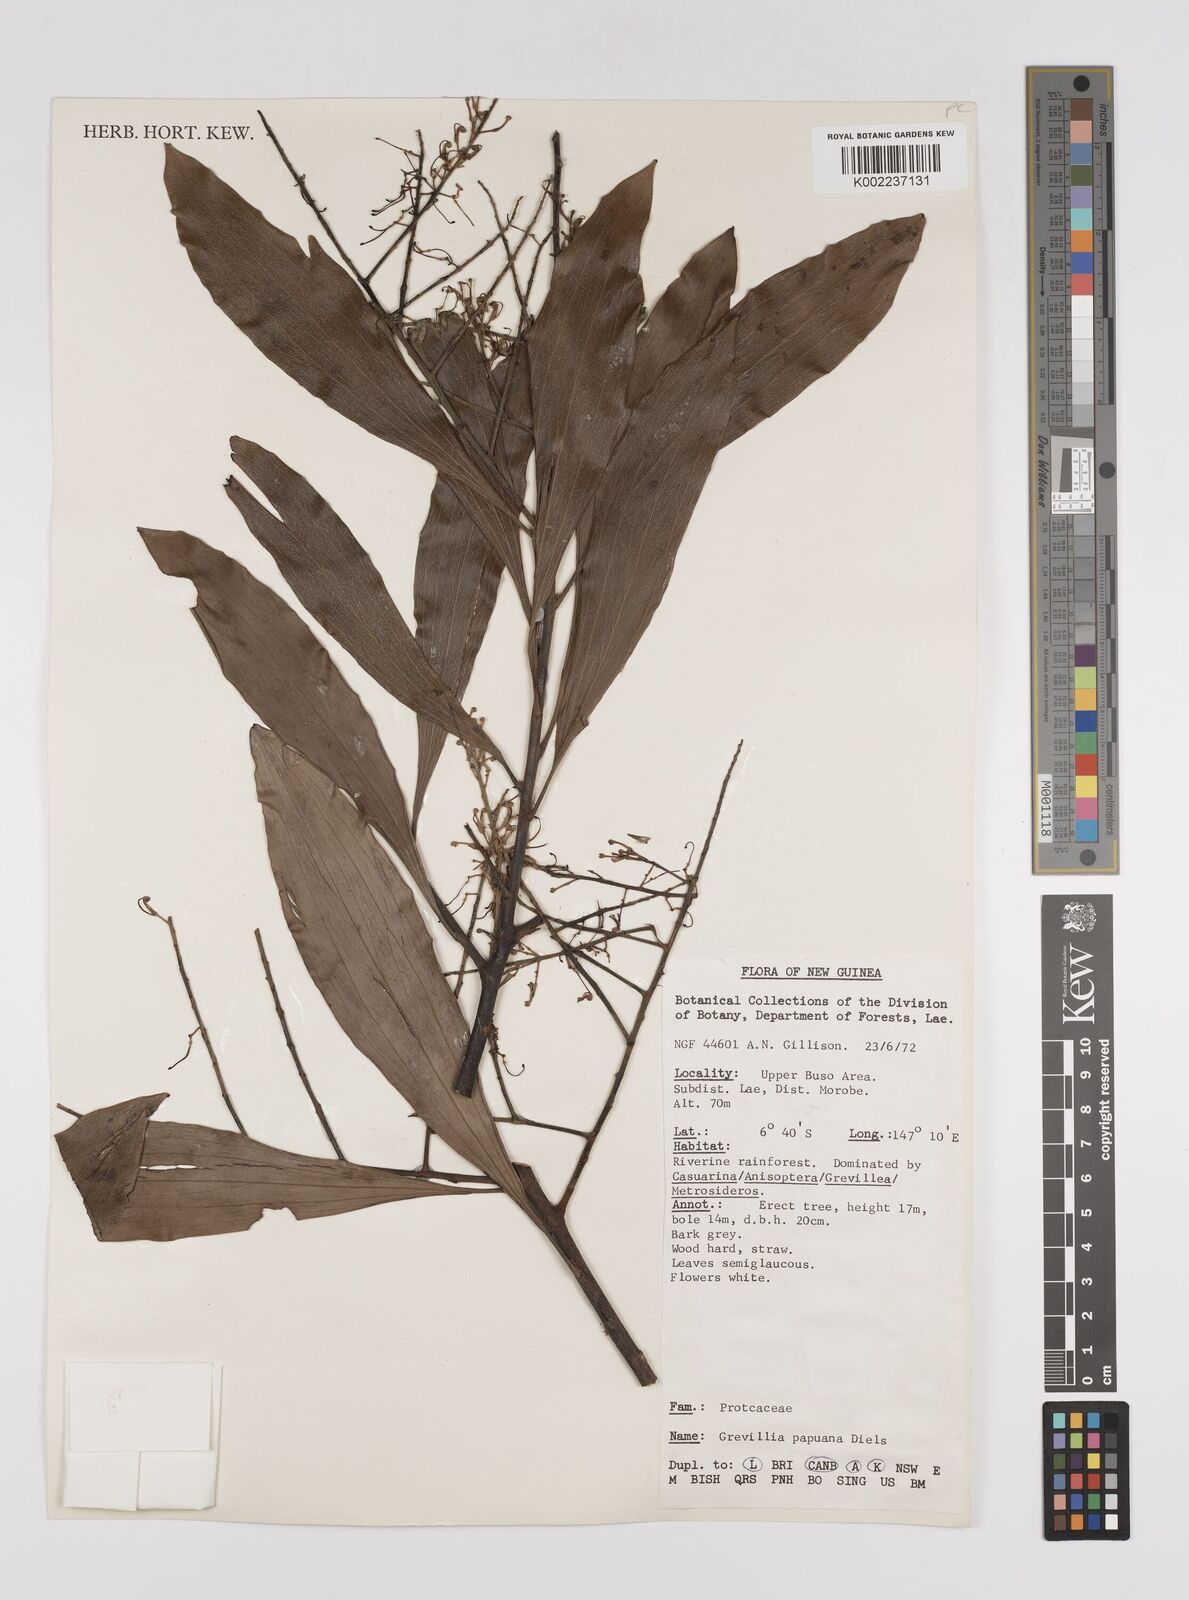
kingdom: Plantae
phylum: Tracheophyta
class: Magnoliopsida
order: Proteales
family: Proteaceae
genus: Grevillea
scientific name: Grevillea papuana
